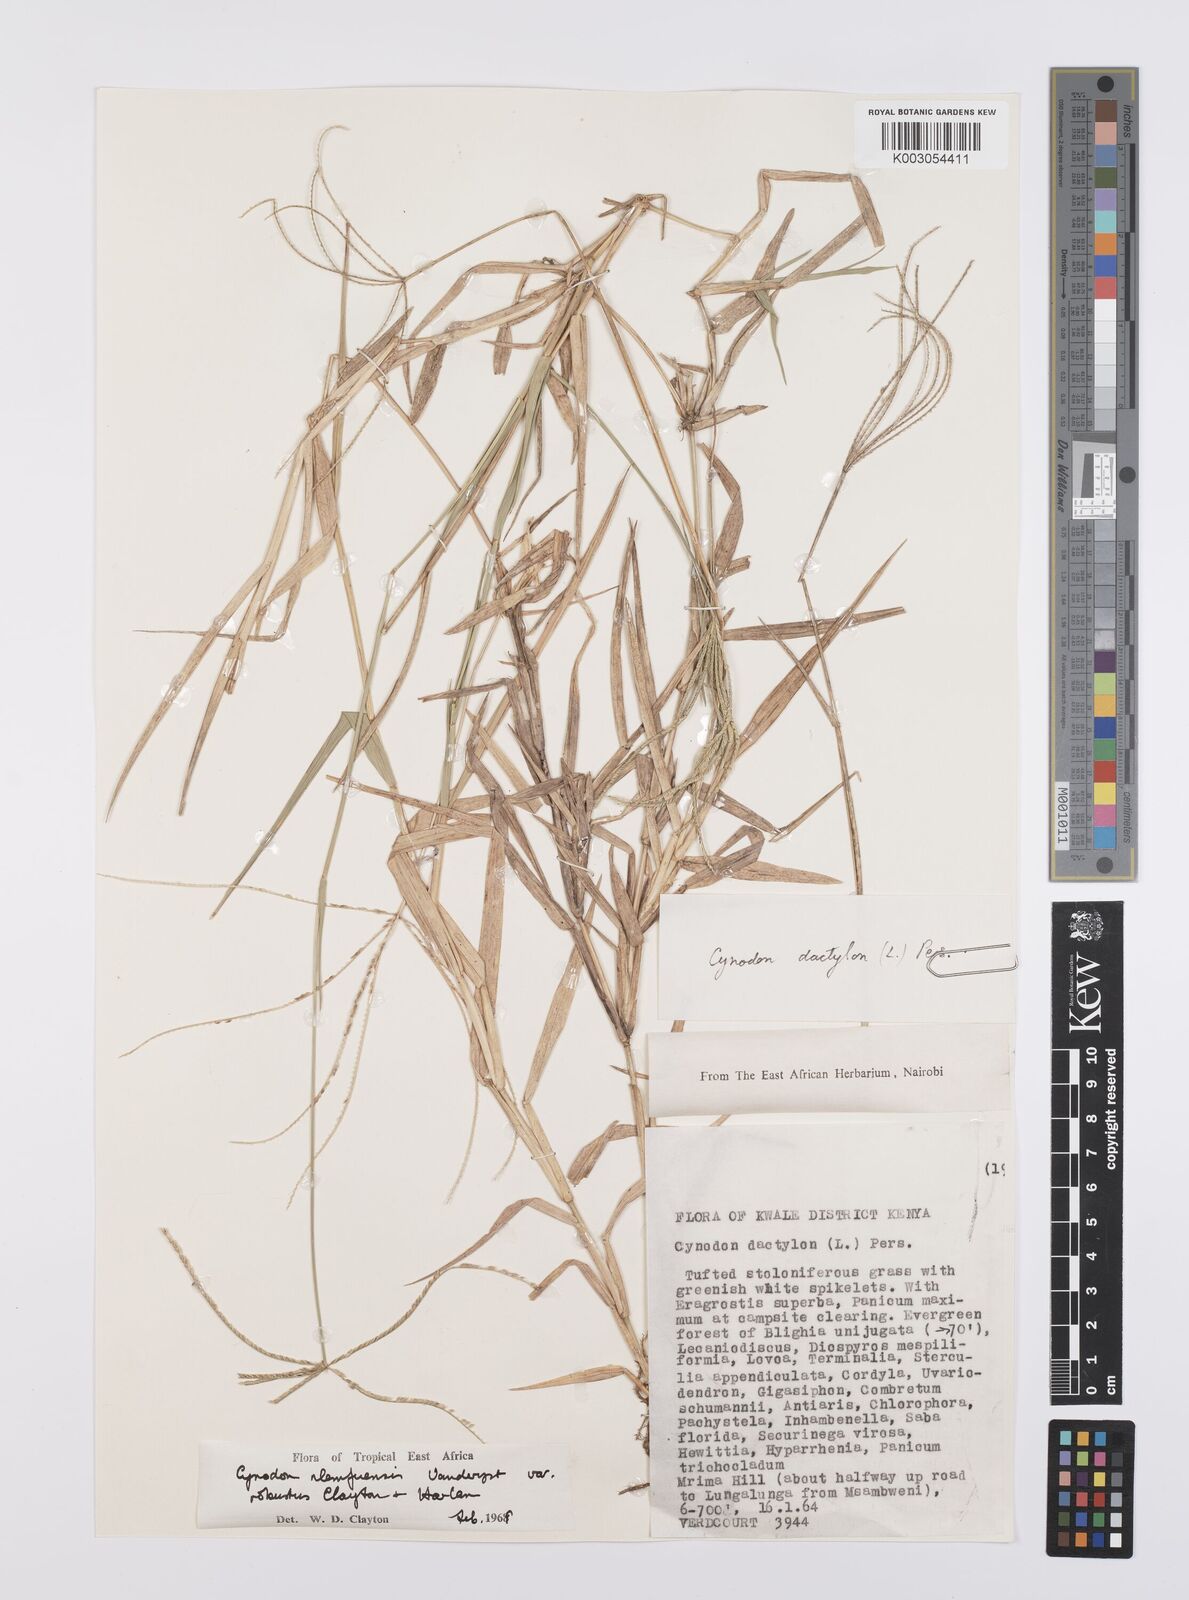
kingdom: Plantae
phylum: Tracheophyta
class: Liliopsida
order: Poales
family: Poaceae
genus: Cynodon
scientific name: Cynodon nlemfuensis
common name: African bermudagrass
